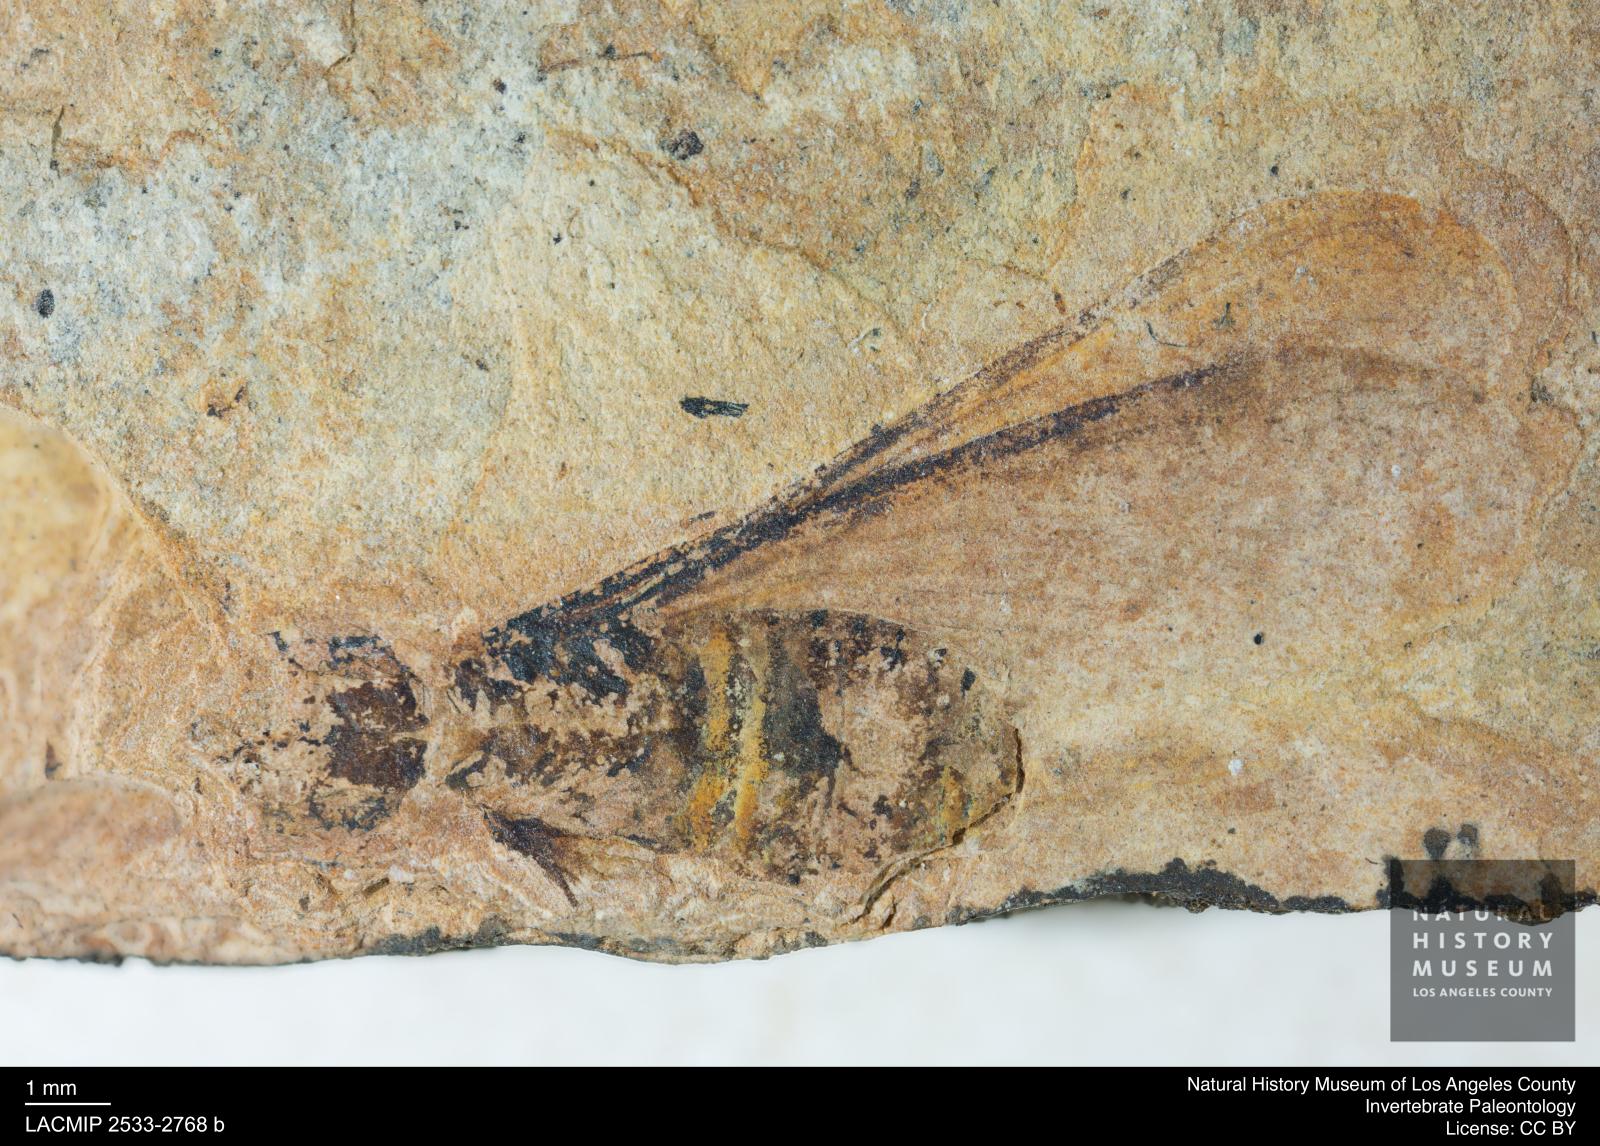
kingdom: Animalia
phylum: Arthropoda
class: Insecta
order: Blattodea
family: Hodotermitidae
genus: Ulmeriella
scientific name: Ulmeriella bauckhorni
